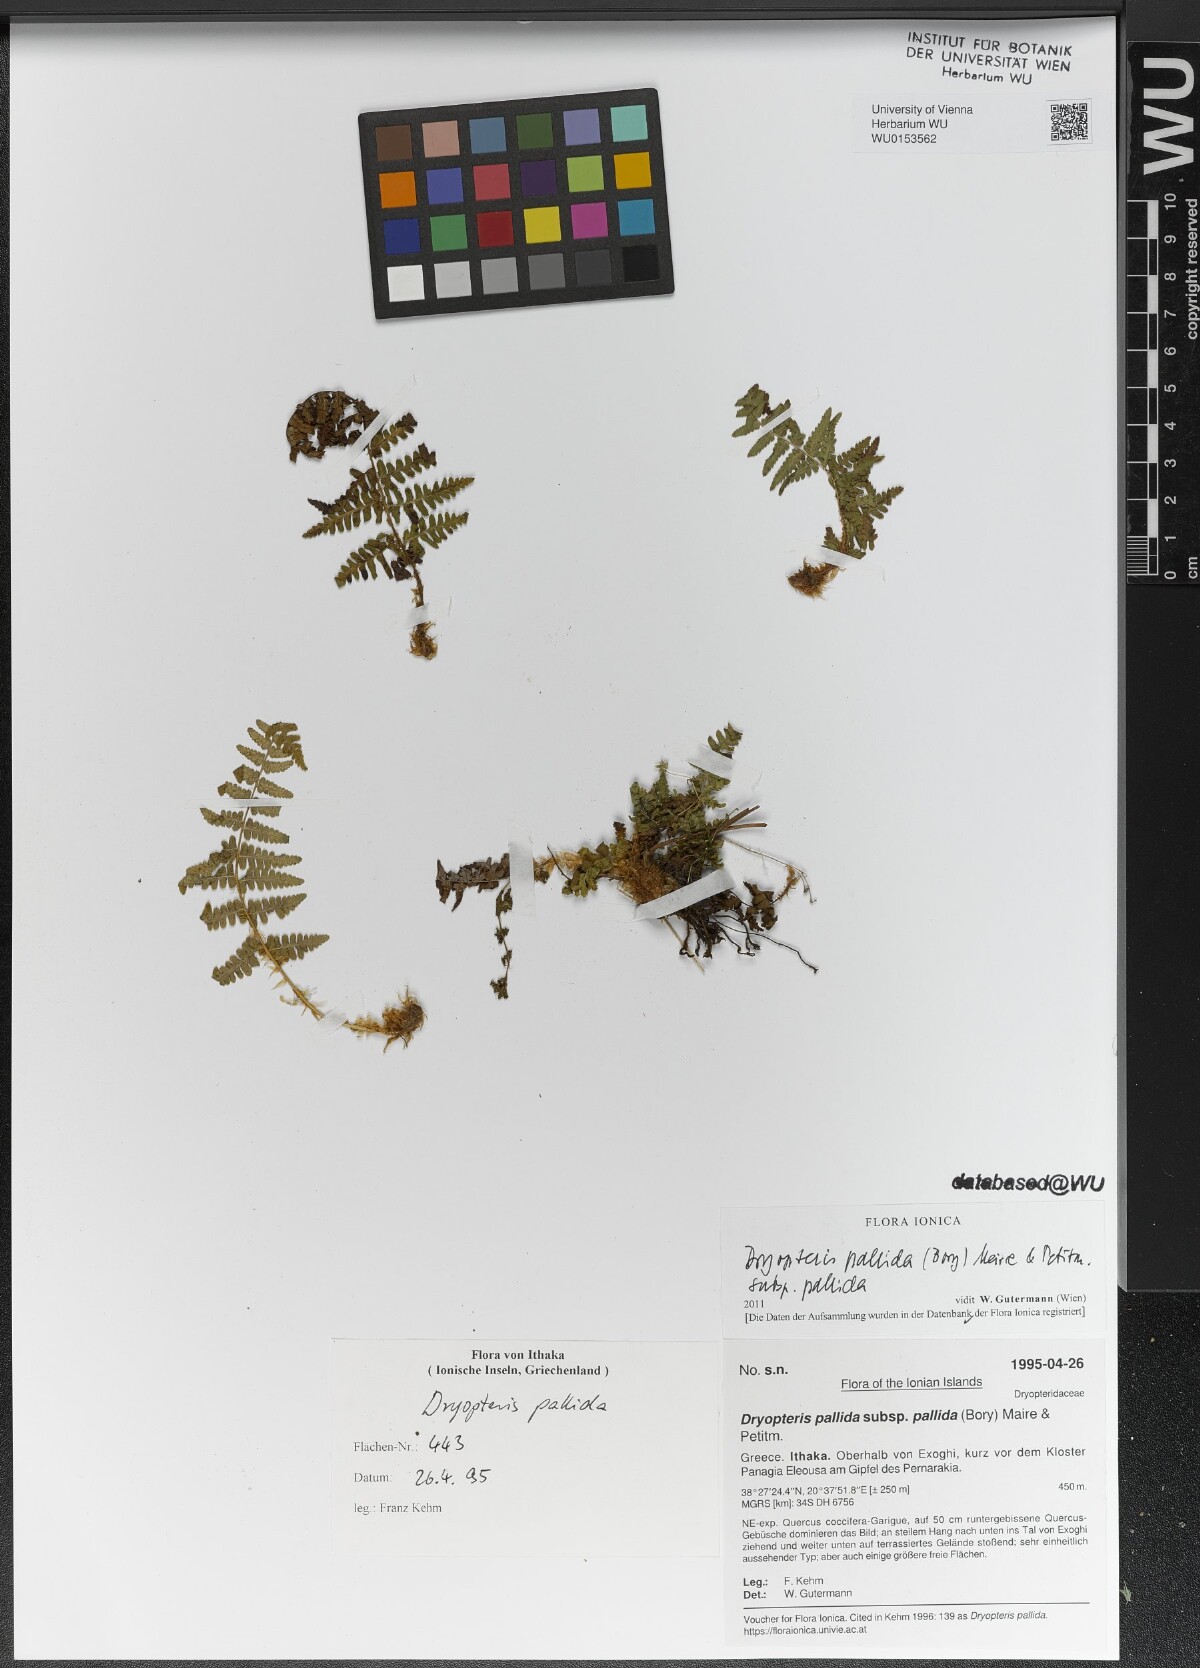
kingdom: Plantae
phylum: Tracheophyta
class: Polypodiopsida
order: Polypodiales
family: Dryopteridaceae
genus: Dryopteris
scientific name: Dryopteris pallida
